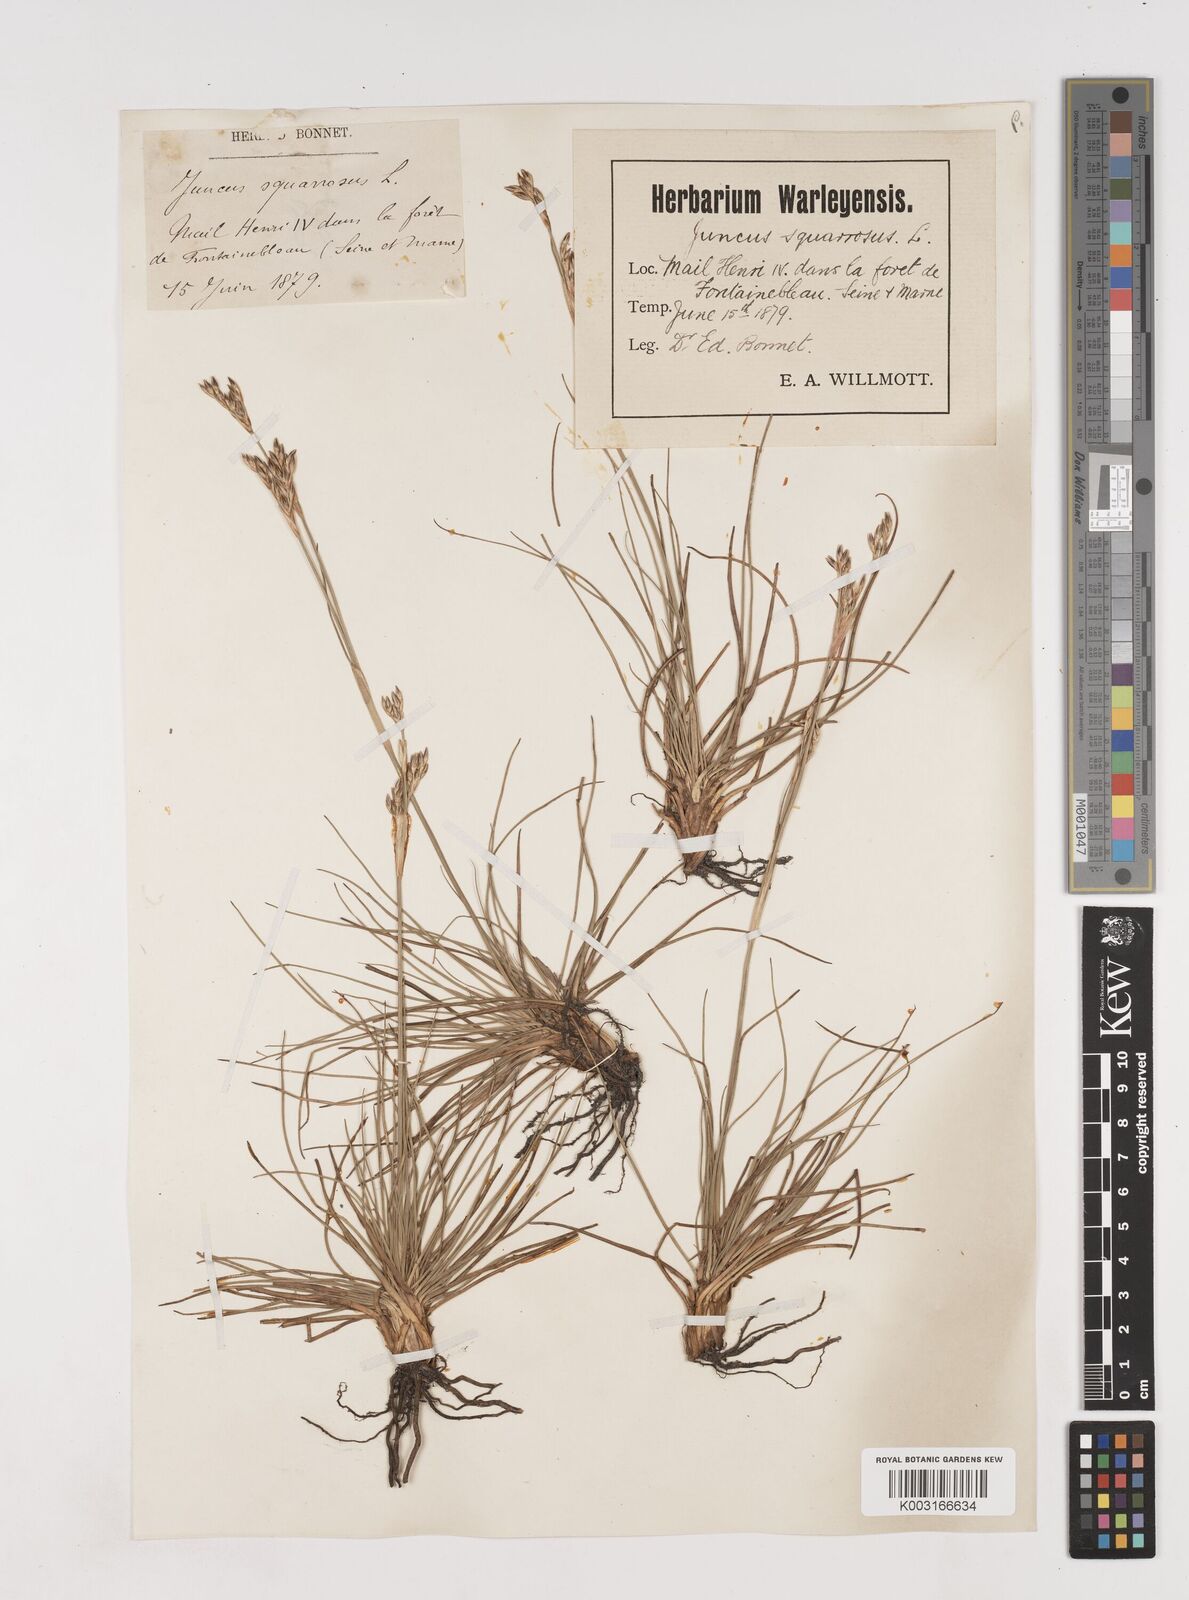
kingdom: Plantae
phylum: Tracheophyta
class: Liliopsida
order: Poales
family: Juncaceae
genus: Juncus
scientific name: Juncus squarrosus
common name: Heath rush
